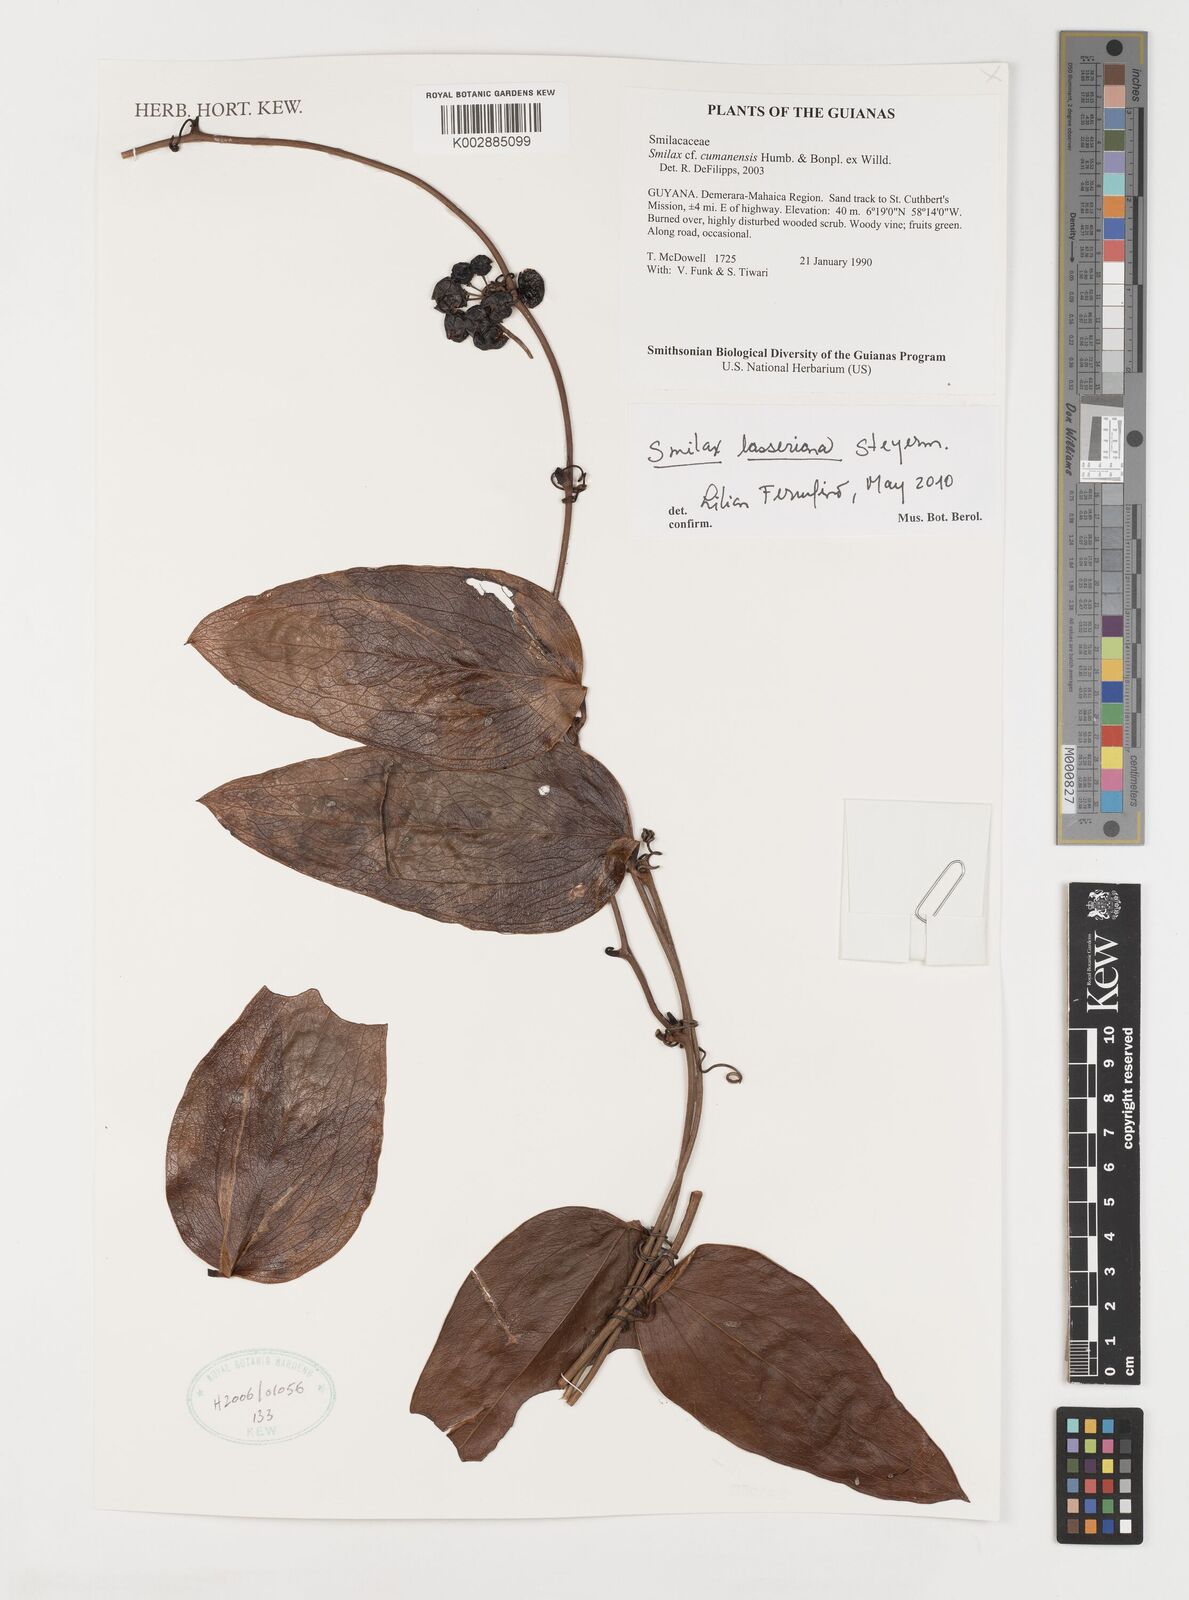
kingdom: Plantae
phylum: Tracheophyta
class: Liliopsida
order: Liliales
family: Smilacaceae
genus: Smilax
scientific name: Smilax domingensis
